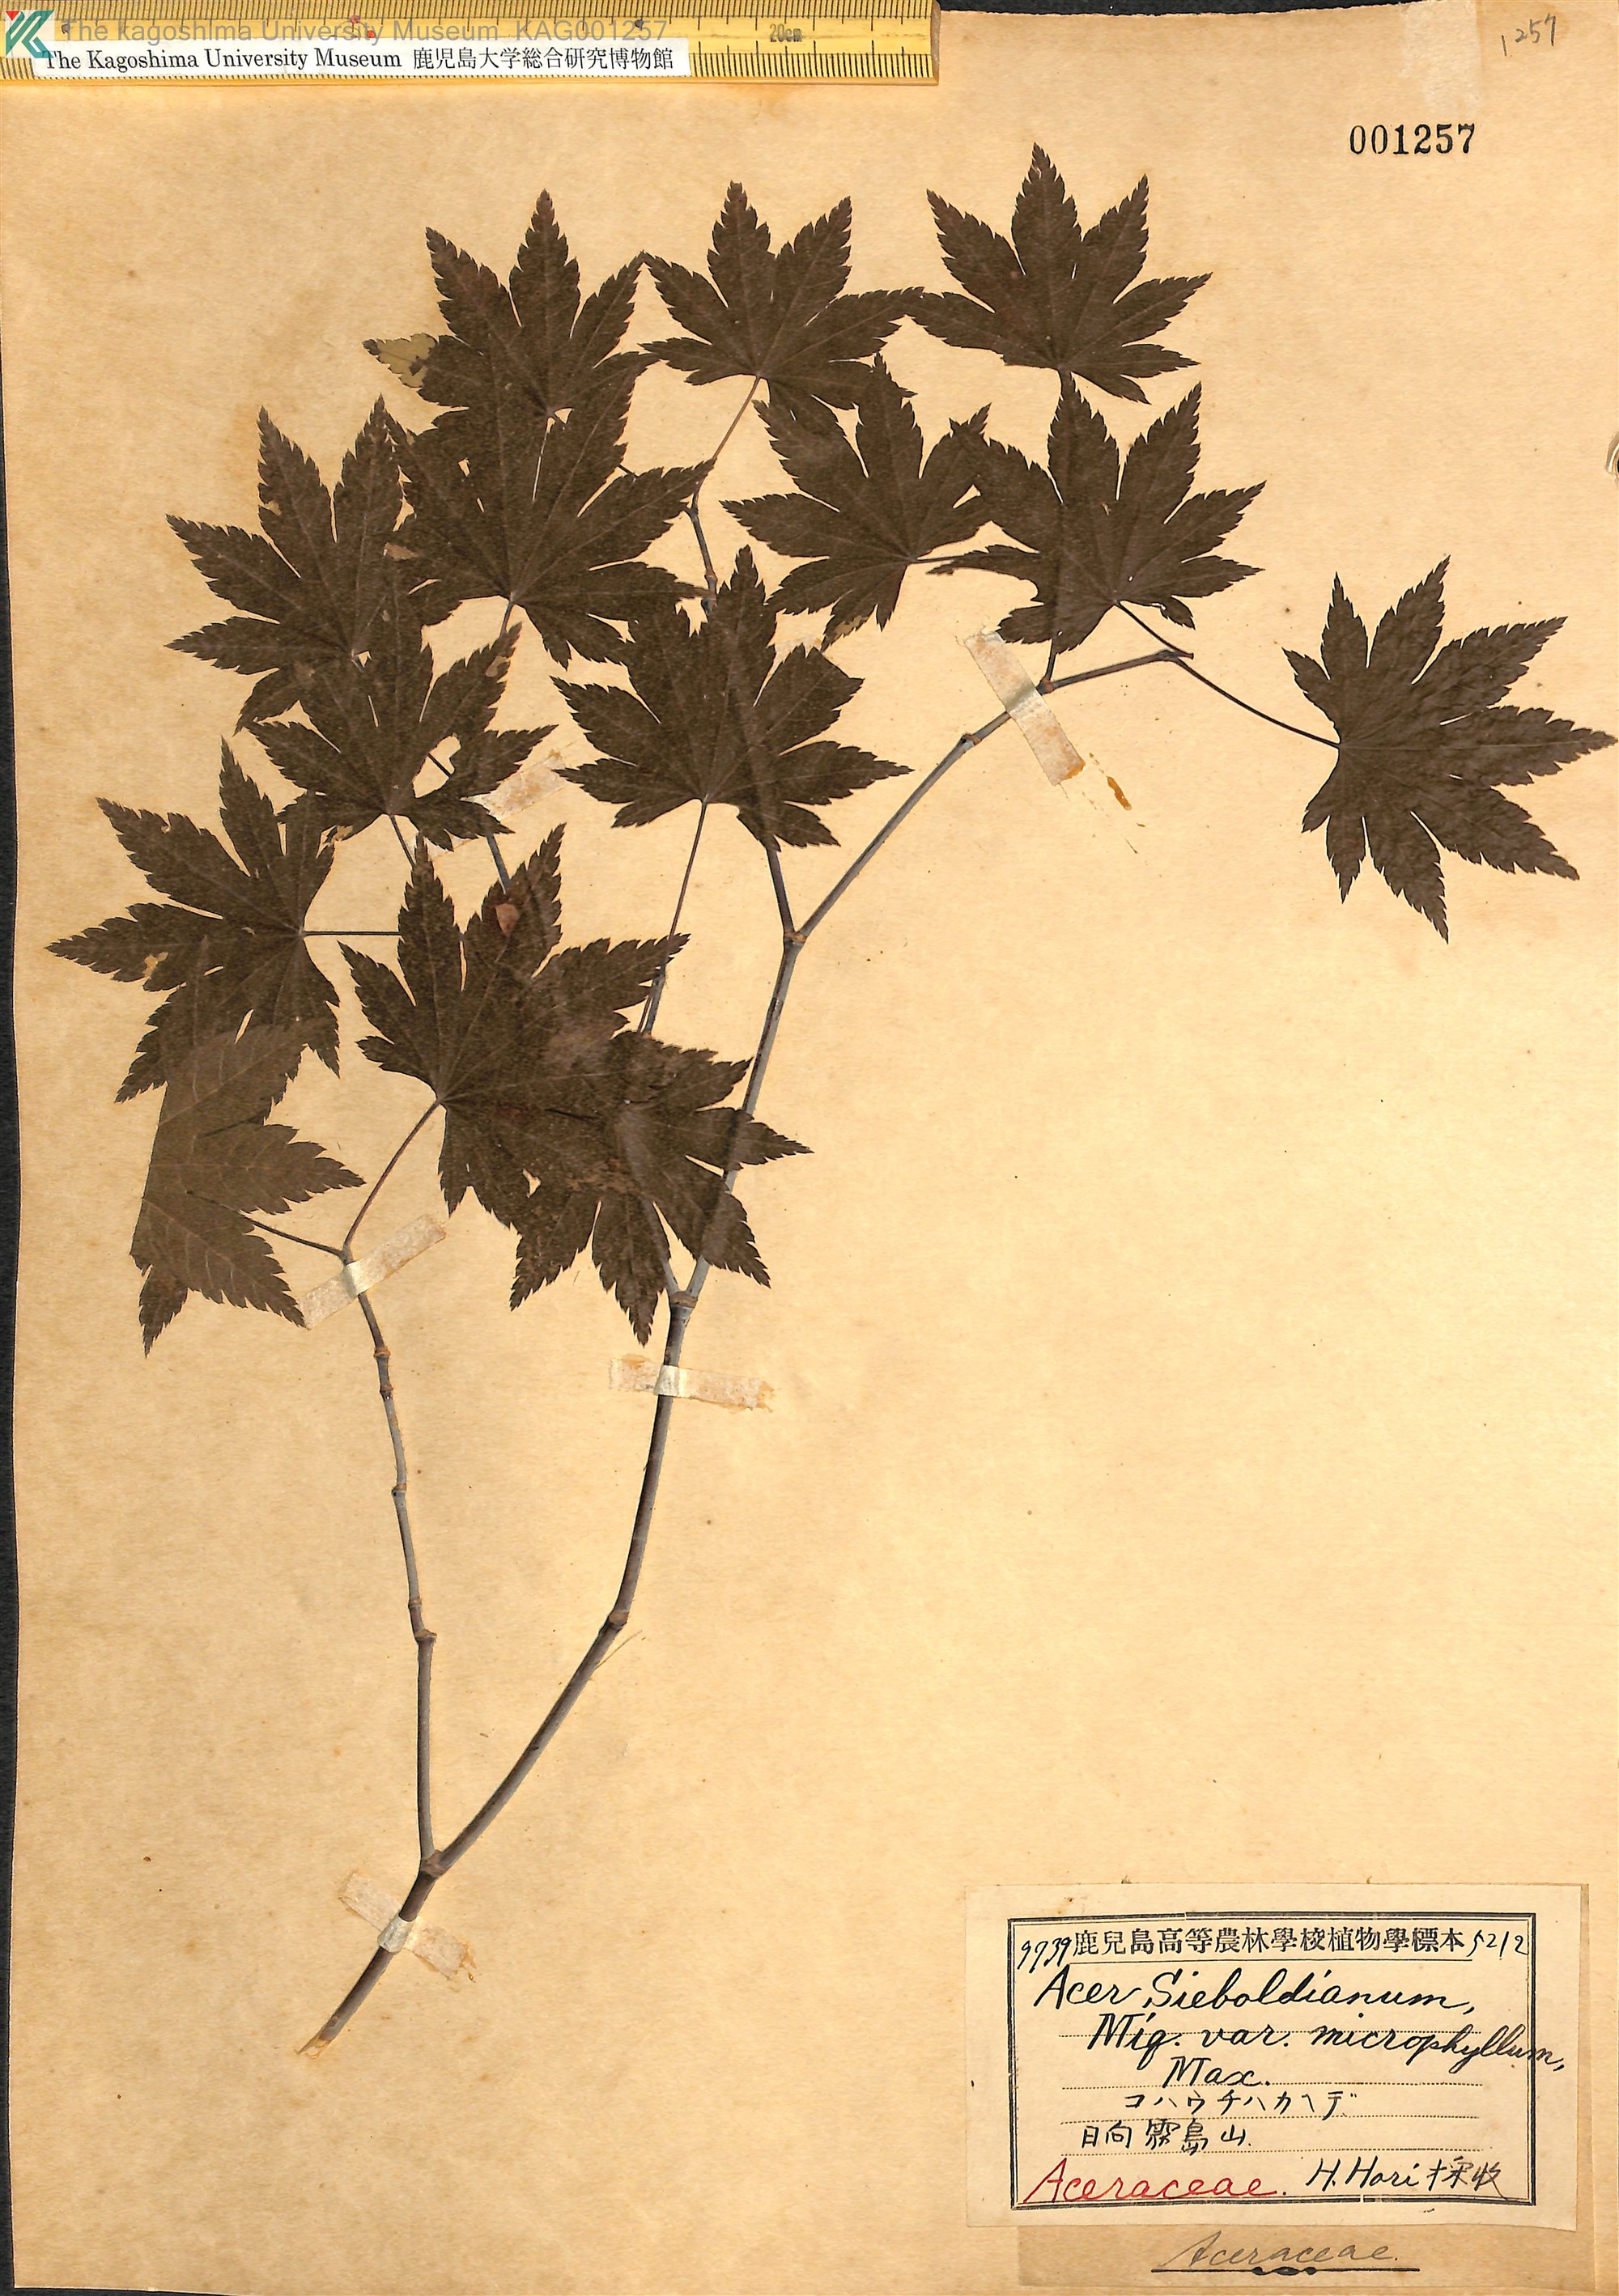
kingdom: Plantae
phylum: Tracheophyta
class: Magnoliopsida
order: Sapindales
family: Sapindaceae
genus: Acer
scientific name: Acer sieboldianum
